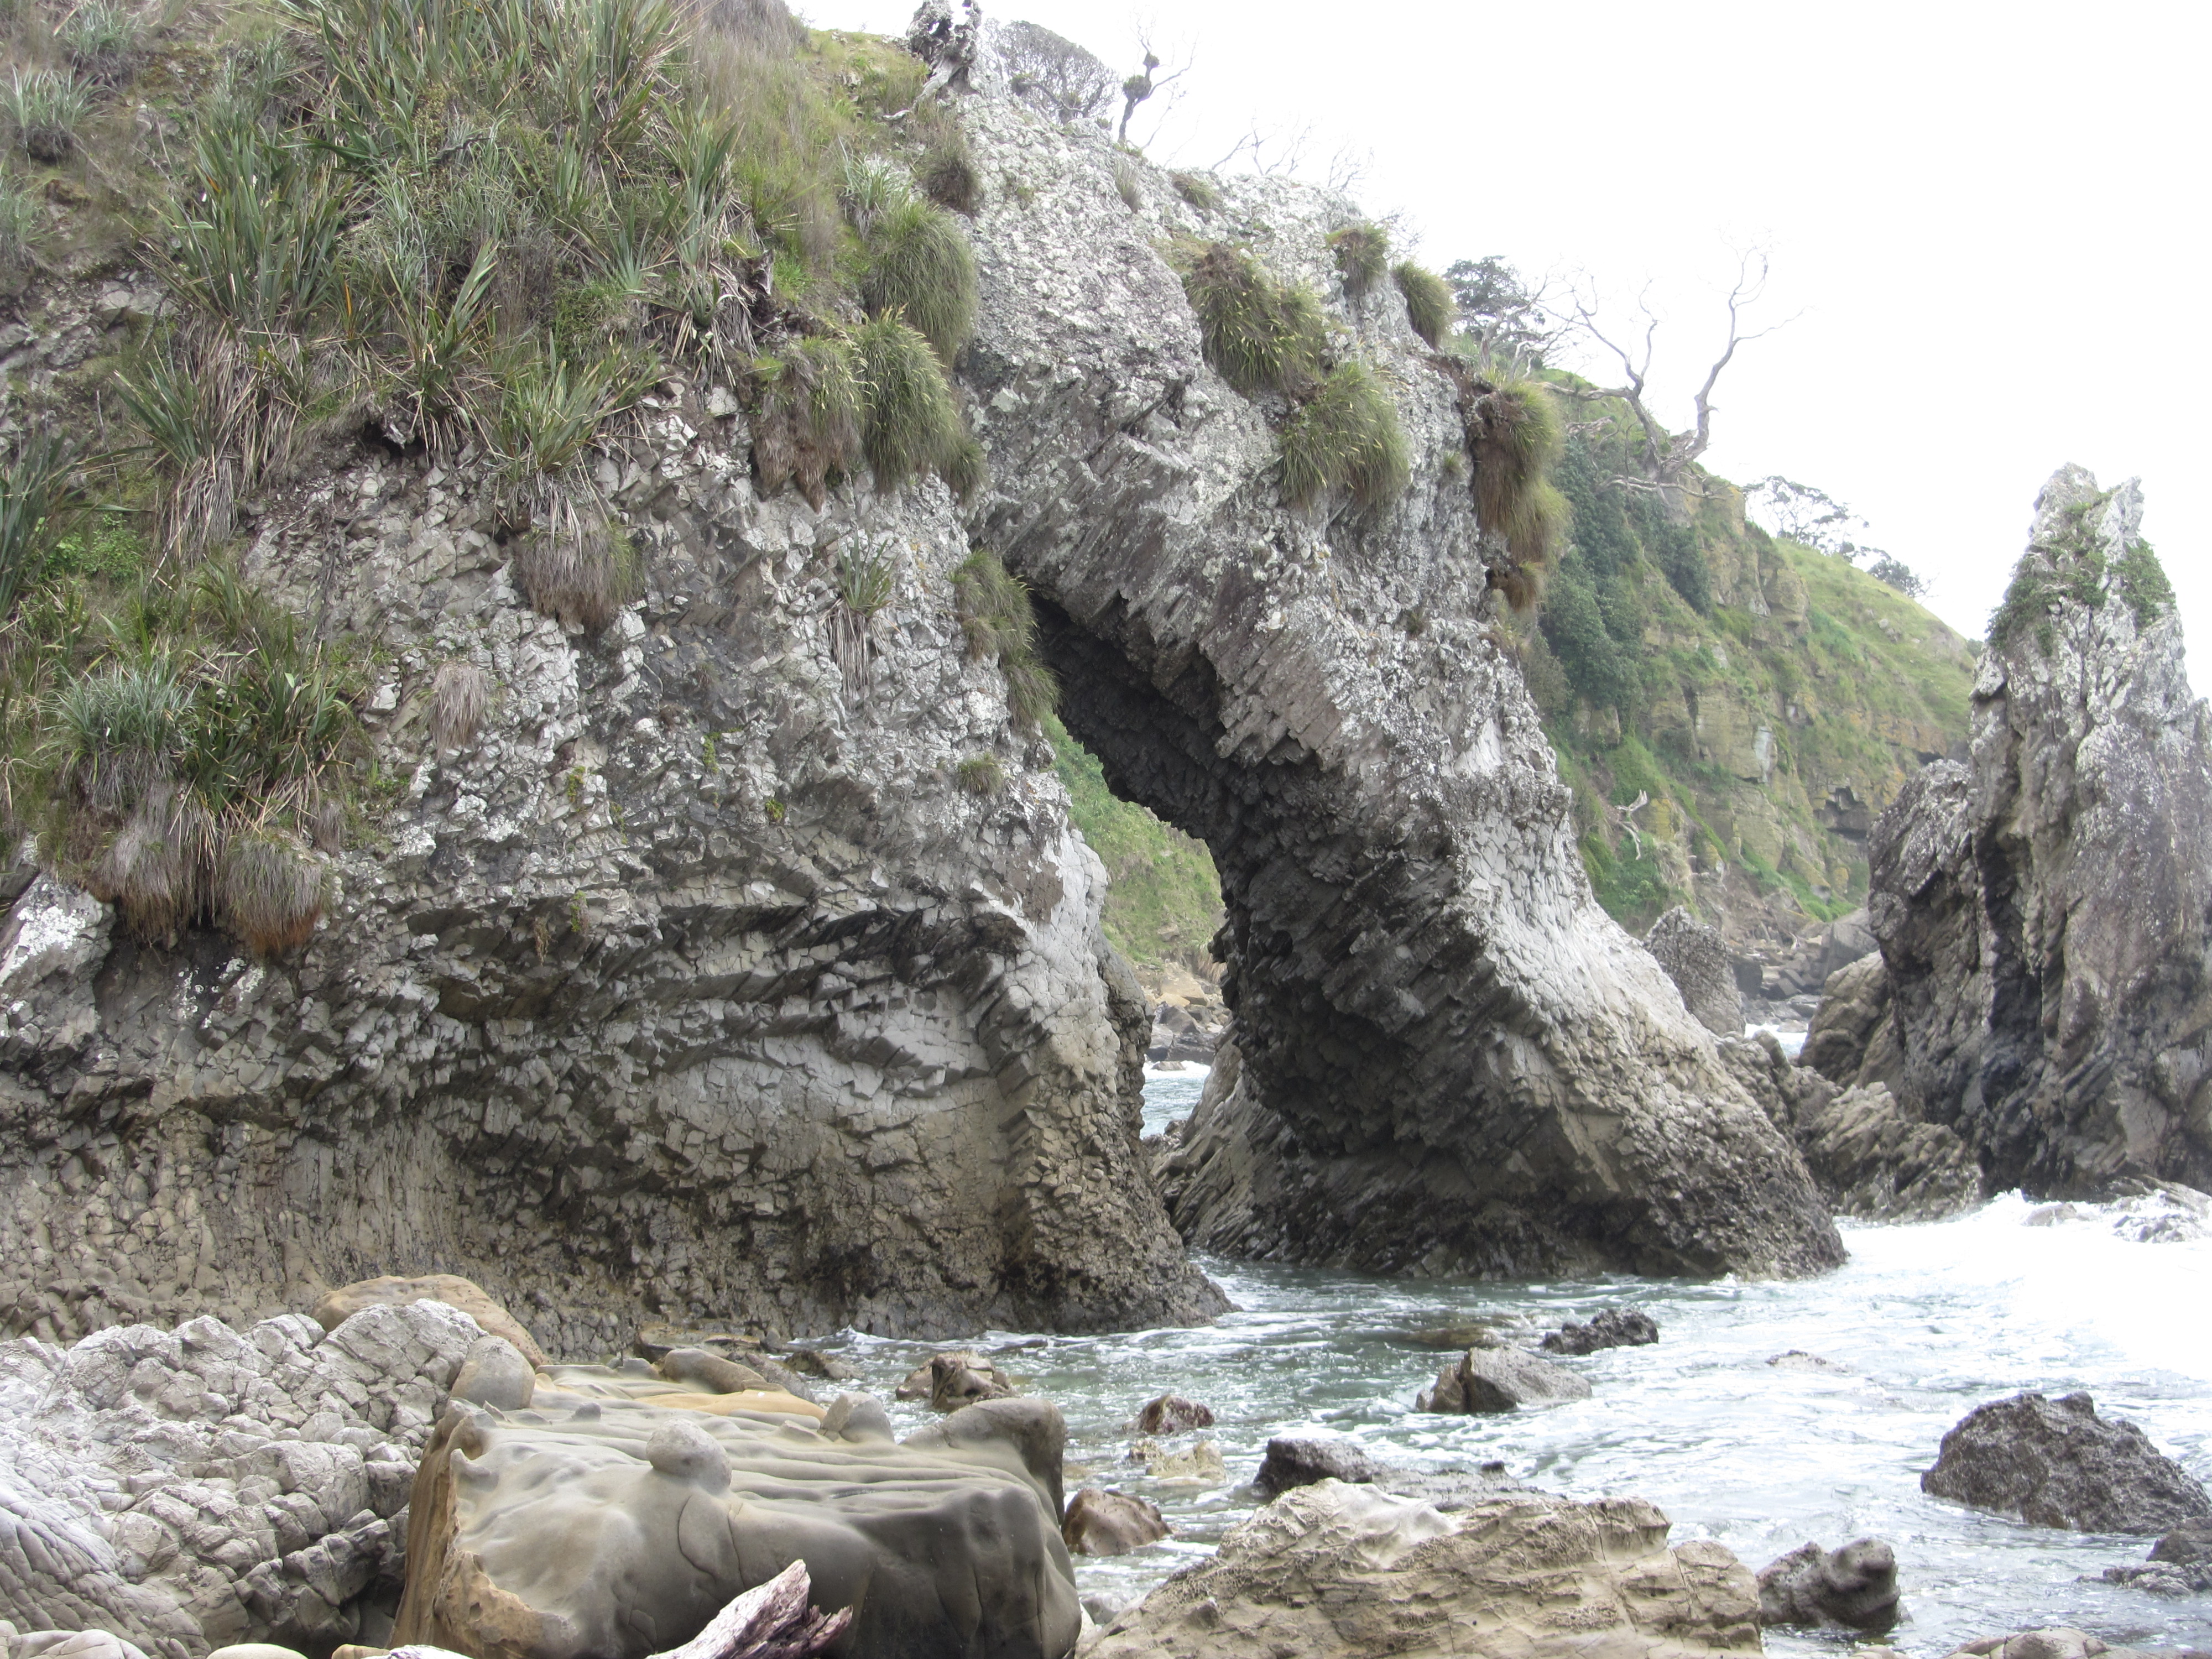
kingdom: Plantae
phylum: Tracheophyta
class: Liliopsida
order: Poales
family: Poaceae
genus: Chionochloa
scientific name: Chionochloa bromoides
